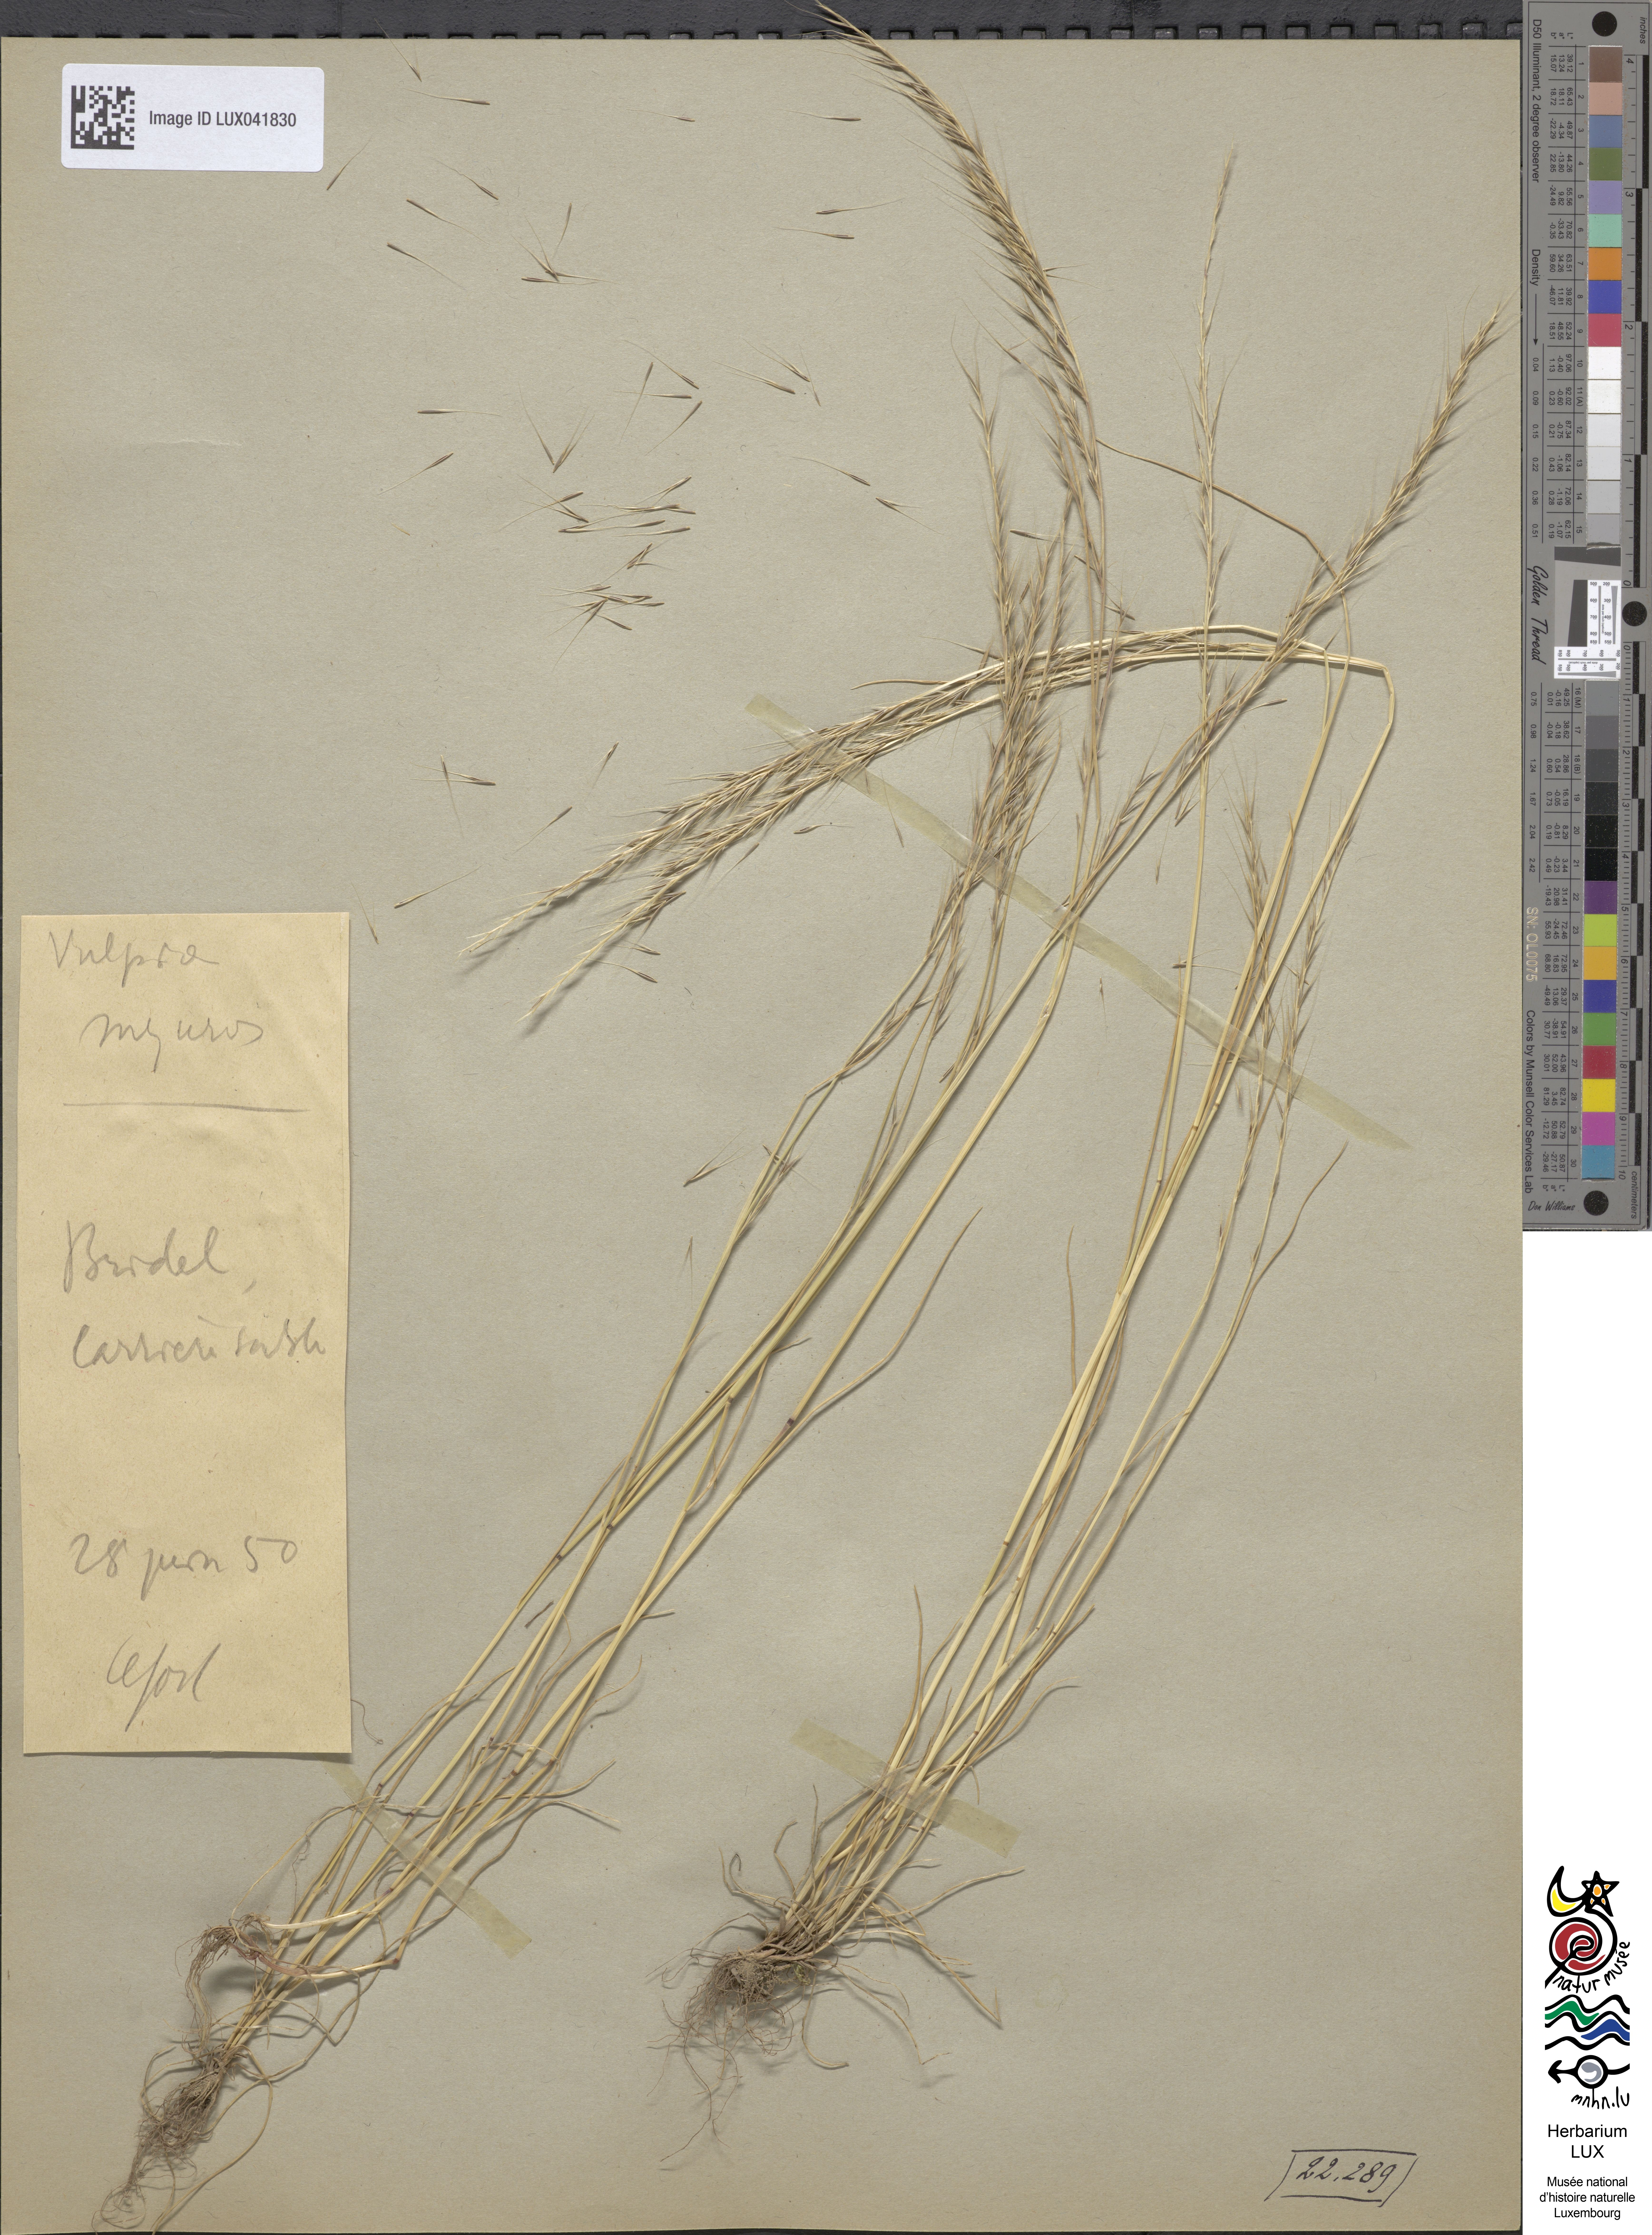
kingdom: Plantae
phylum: Tracheophyta
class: Liliopsida
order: Poales
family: Poaceae
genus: Festuca
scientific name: Festuca myuros
